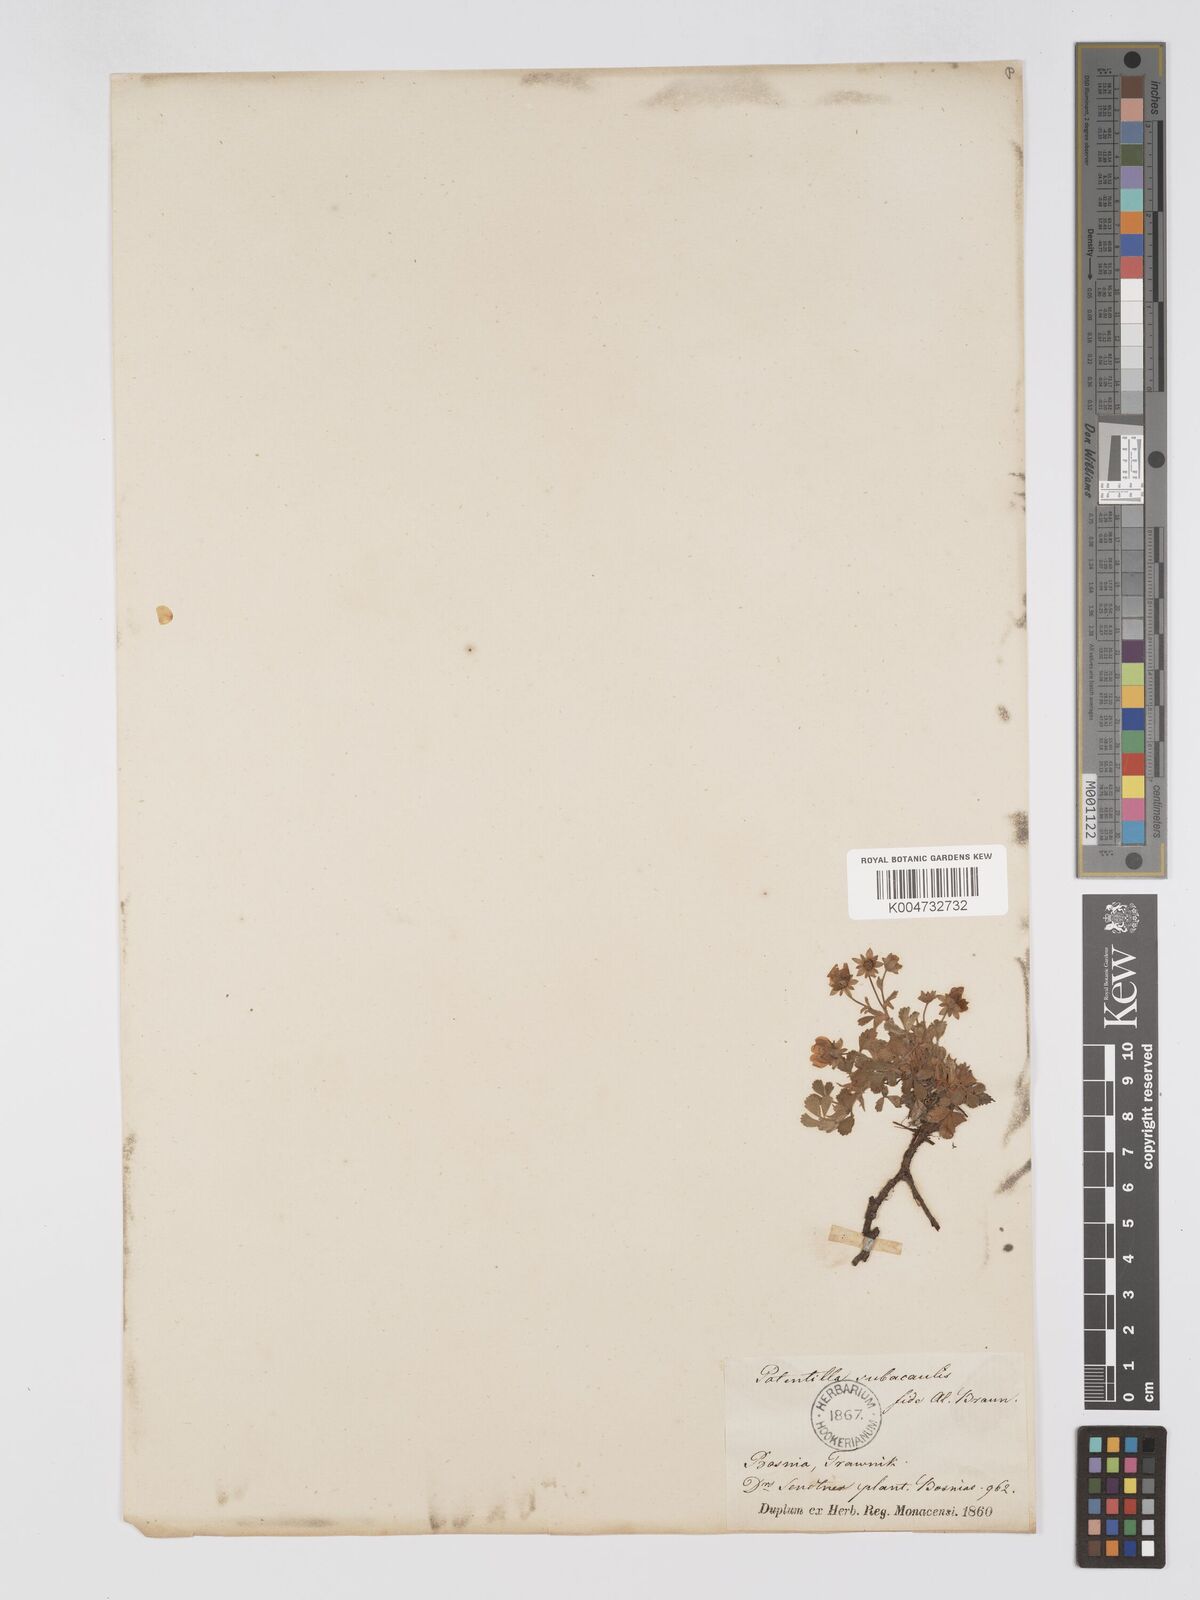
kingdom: Plantae
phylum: Tracheophyta
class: Magnoliopsida
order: Rosales
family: Rosaceae
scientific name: Rosaceae
